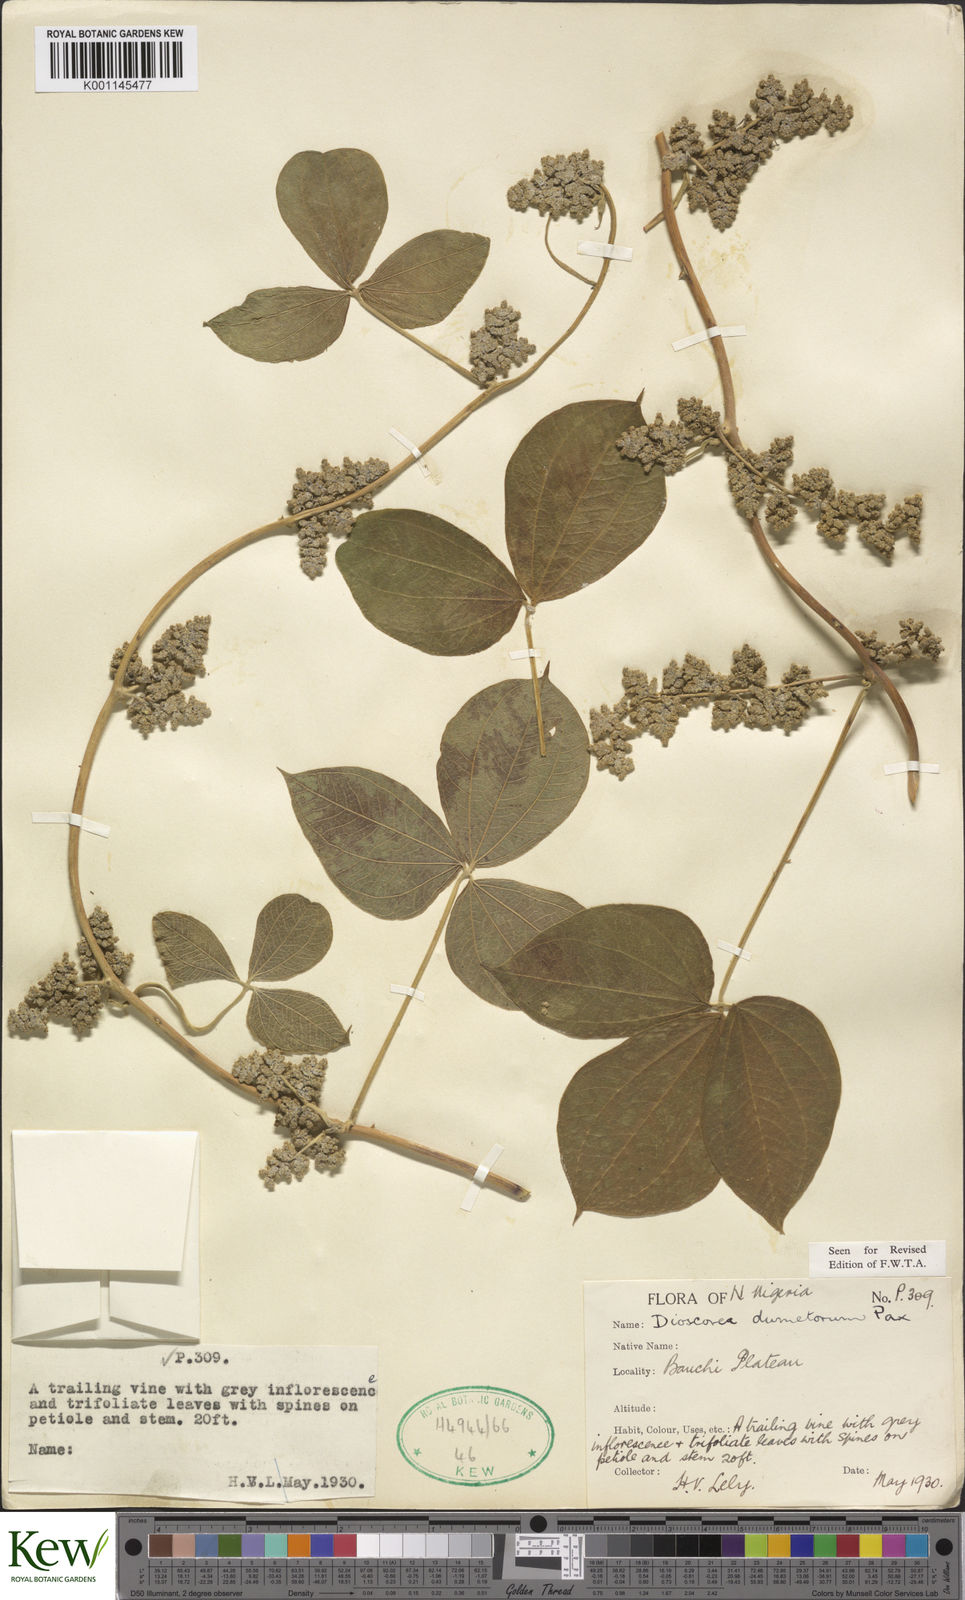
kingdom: Plantae
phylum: Tracheophyta
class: Liliopsida
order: Dioscoreales
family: Dioscoreaceae
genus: Dioscorea
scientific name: Dioscorea dumetorum
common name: African bitter yam
